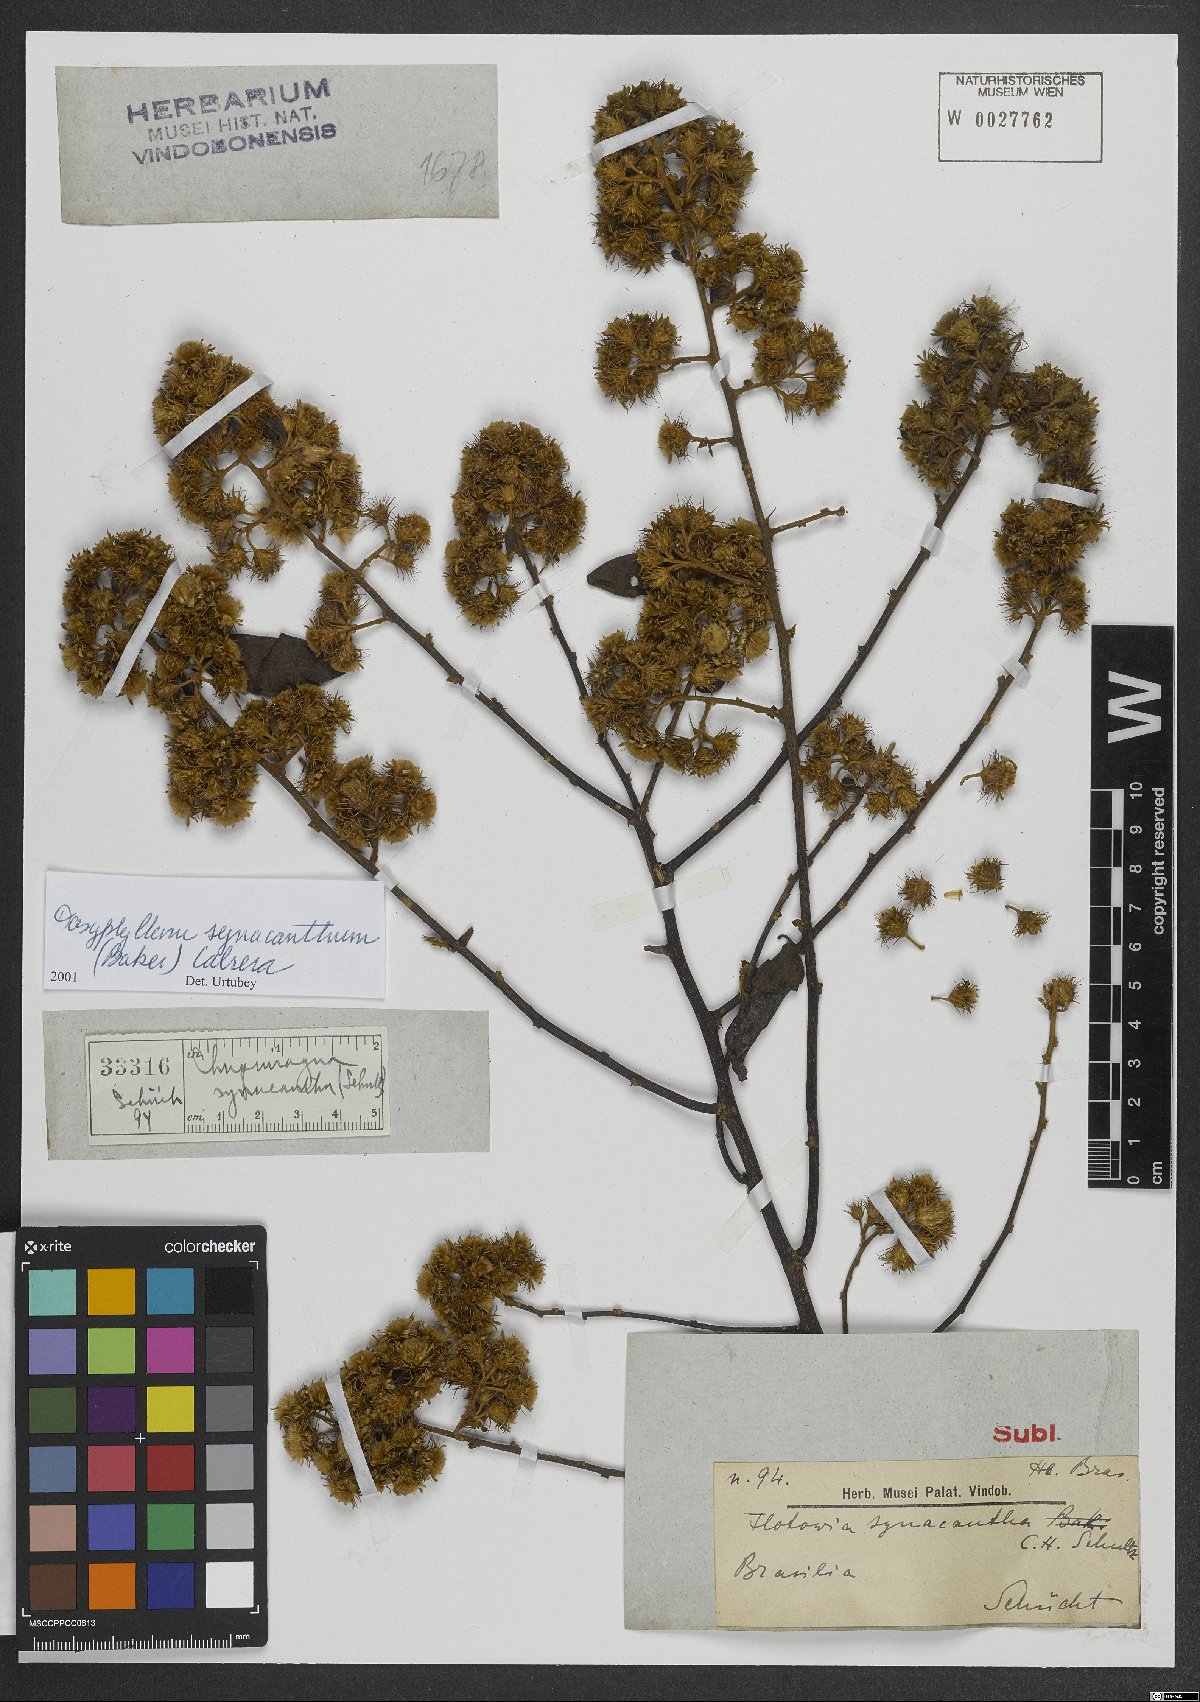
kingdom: Plantae
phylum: Tracheophyta
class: Magnoliopsida
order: Asterales
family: Asteraceae
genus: Dasyphyllum
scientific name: Dasyphyllum synacanthum
